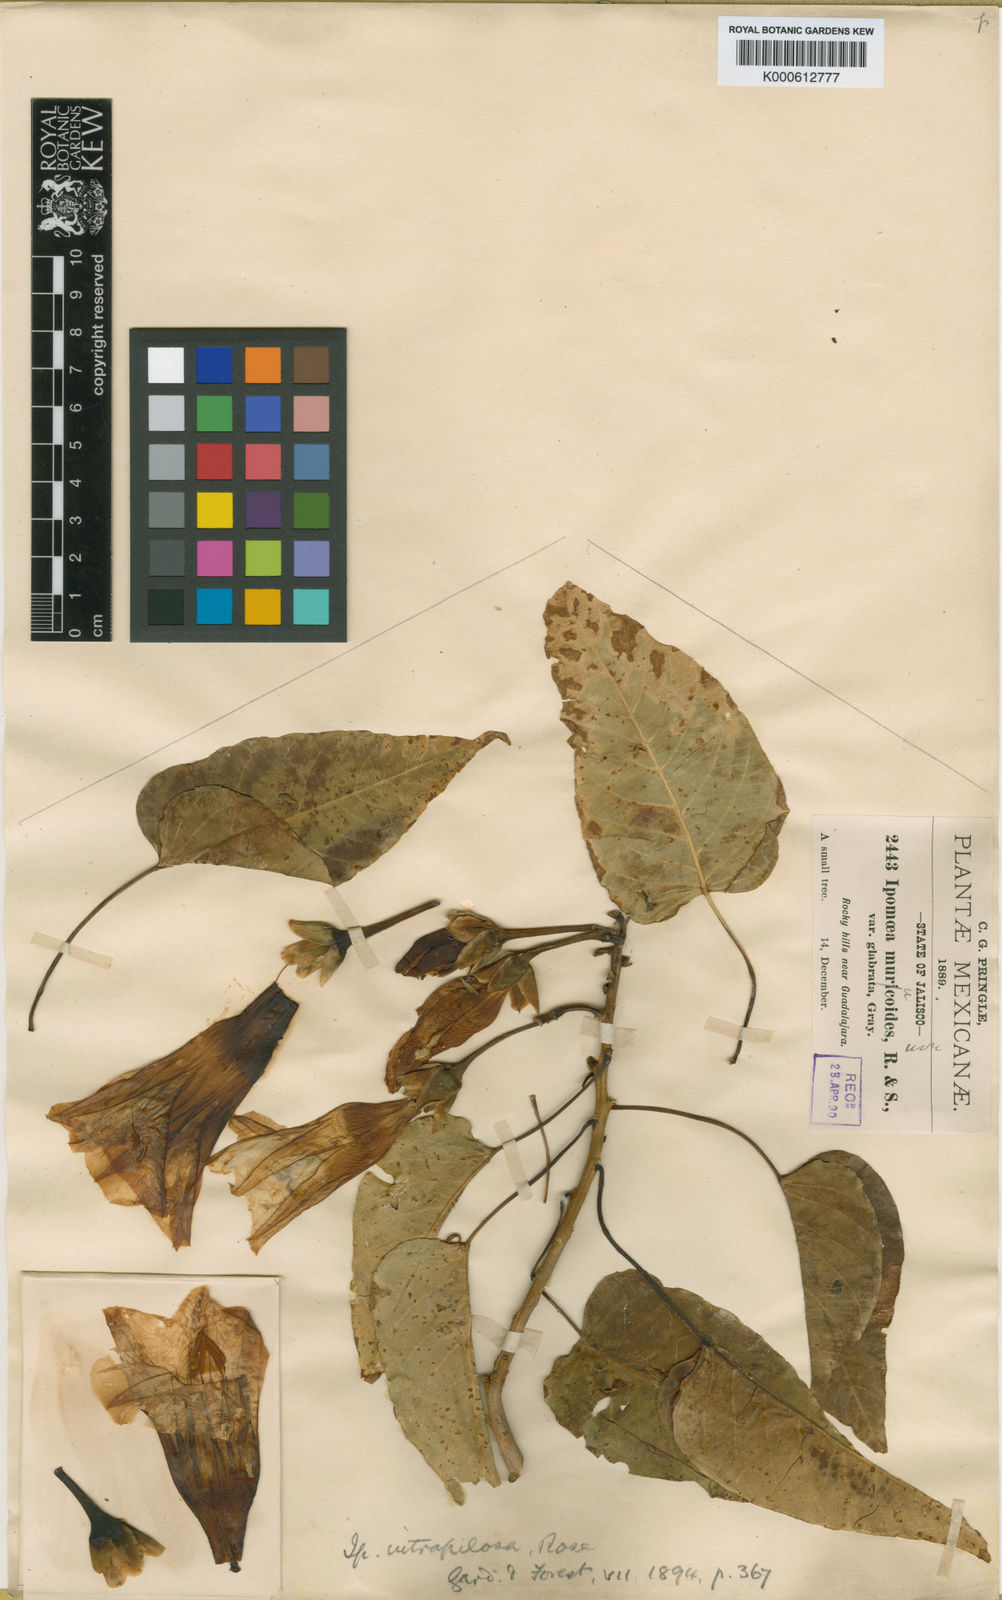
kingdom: Plantae
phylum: Tracheophyta
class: Magnoliopsida
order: Solanales
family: Convolvulaceae
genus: Ipomoea
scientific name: Ipomoea intrapilosa
